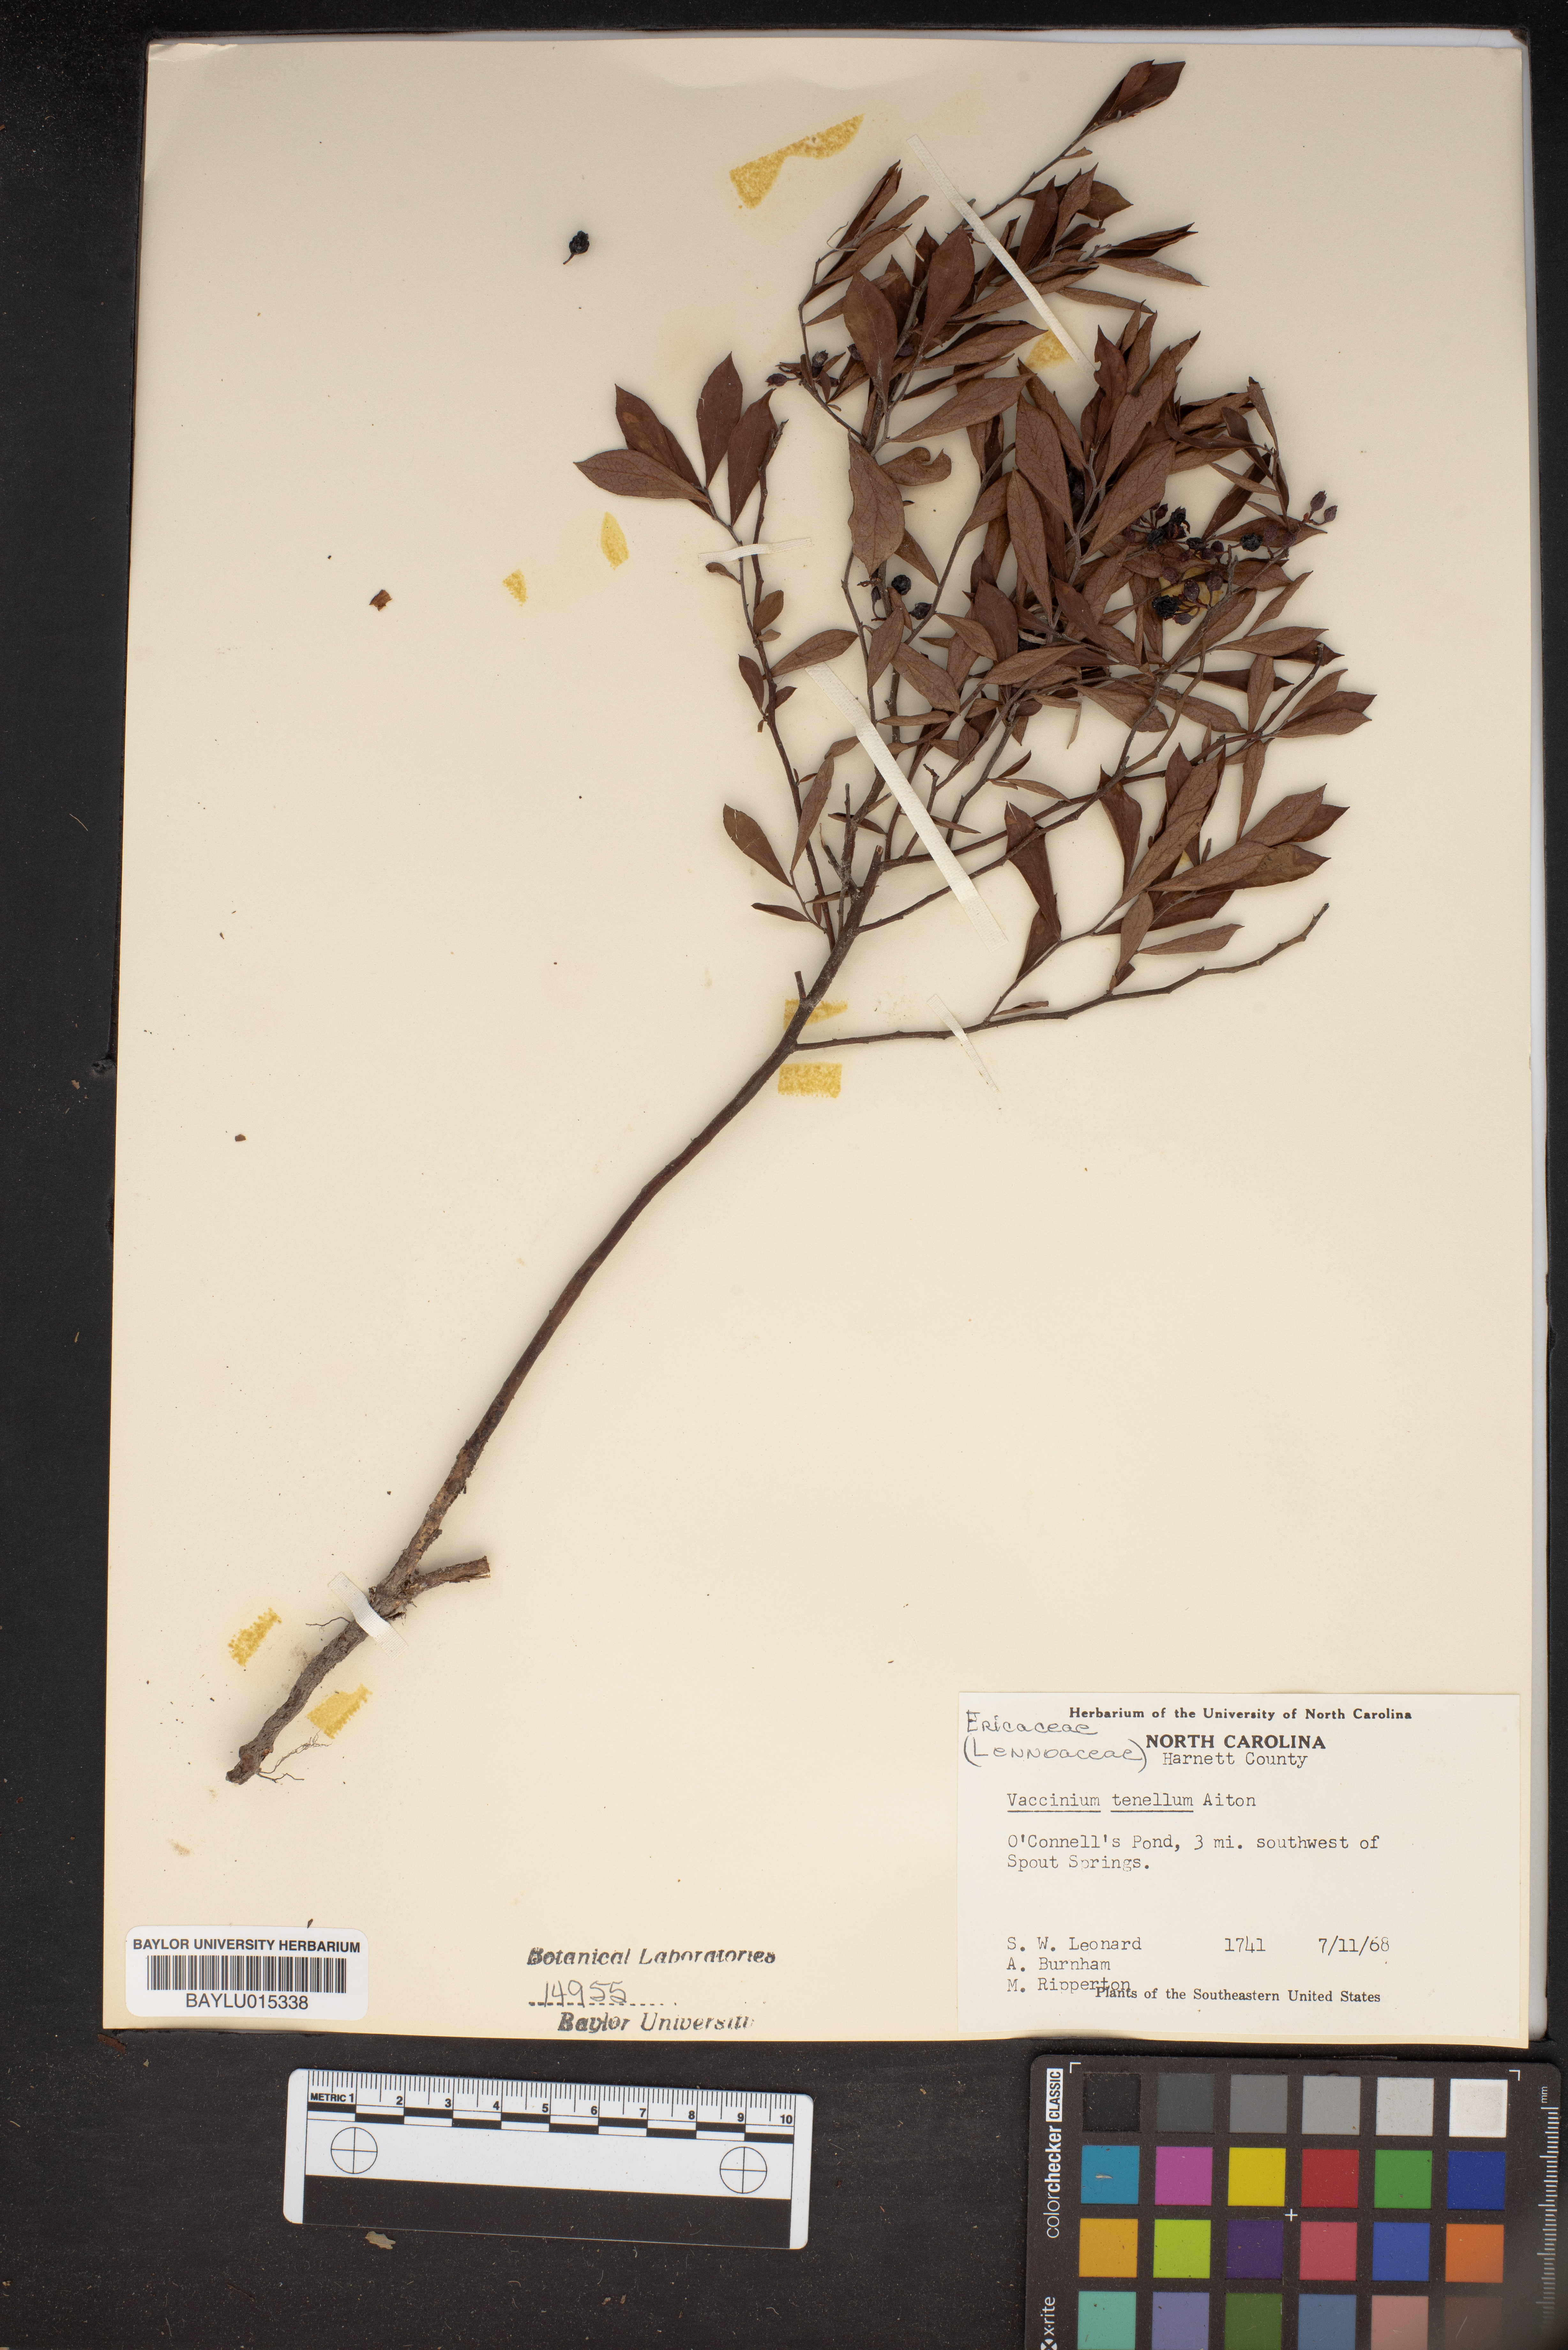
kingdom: Plantae
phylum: Tracheophyta
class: Magnoliopsida
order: Ericales
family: Ericaceae
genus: Vaccinium
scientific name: Vaccinium tenellum
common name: Southern blueberry
